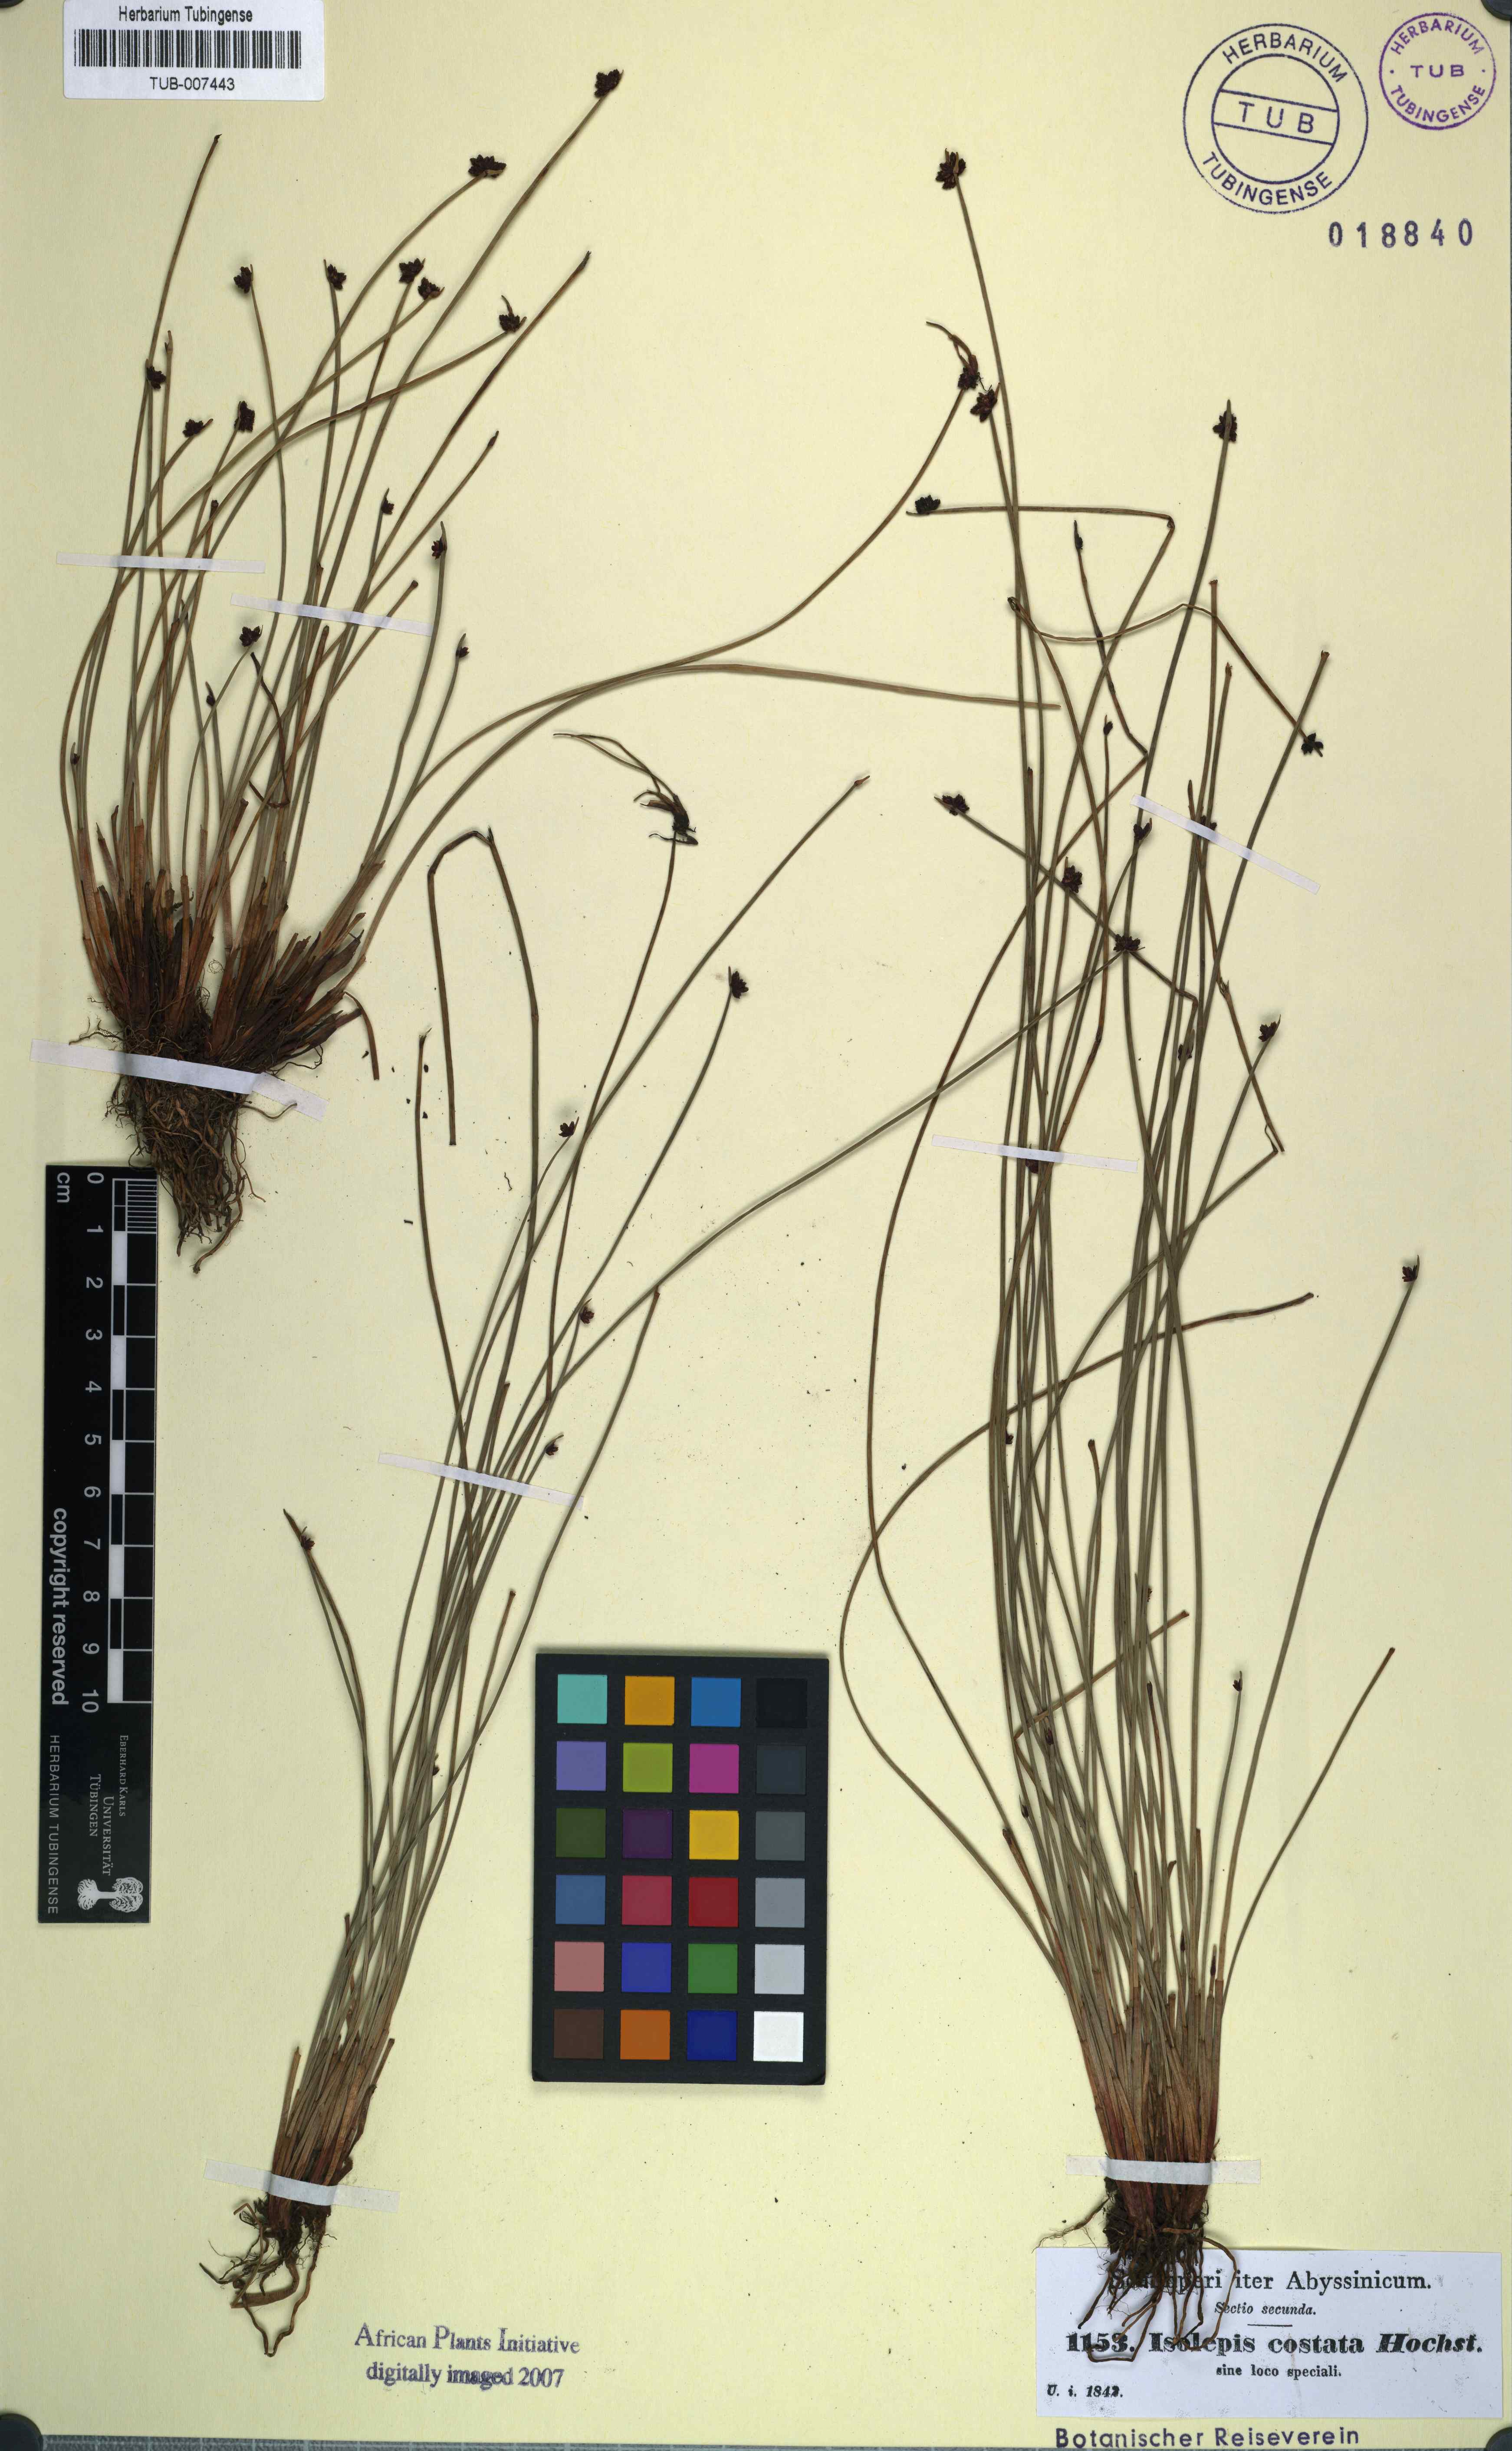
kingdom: Plantae
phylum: Tracheophyta
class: Liliopsida
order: Poales
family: Cyperaceae
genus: Isolepis
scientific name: Isolepis costata
